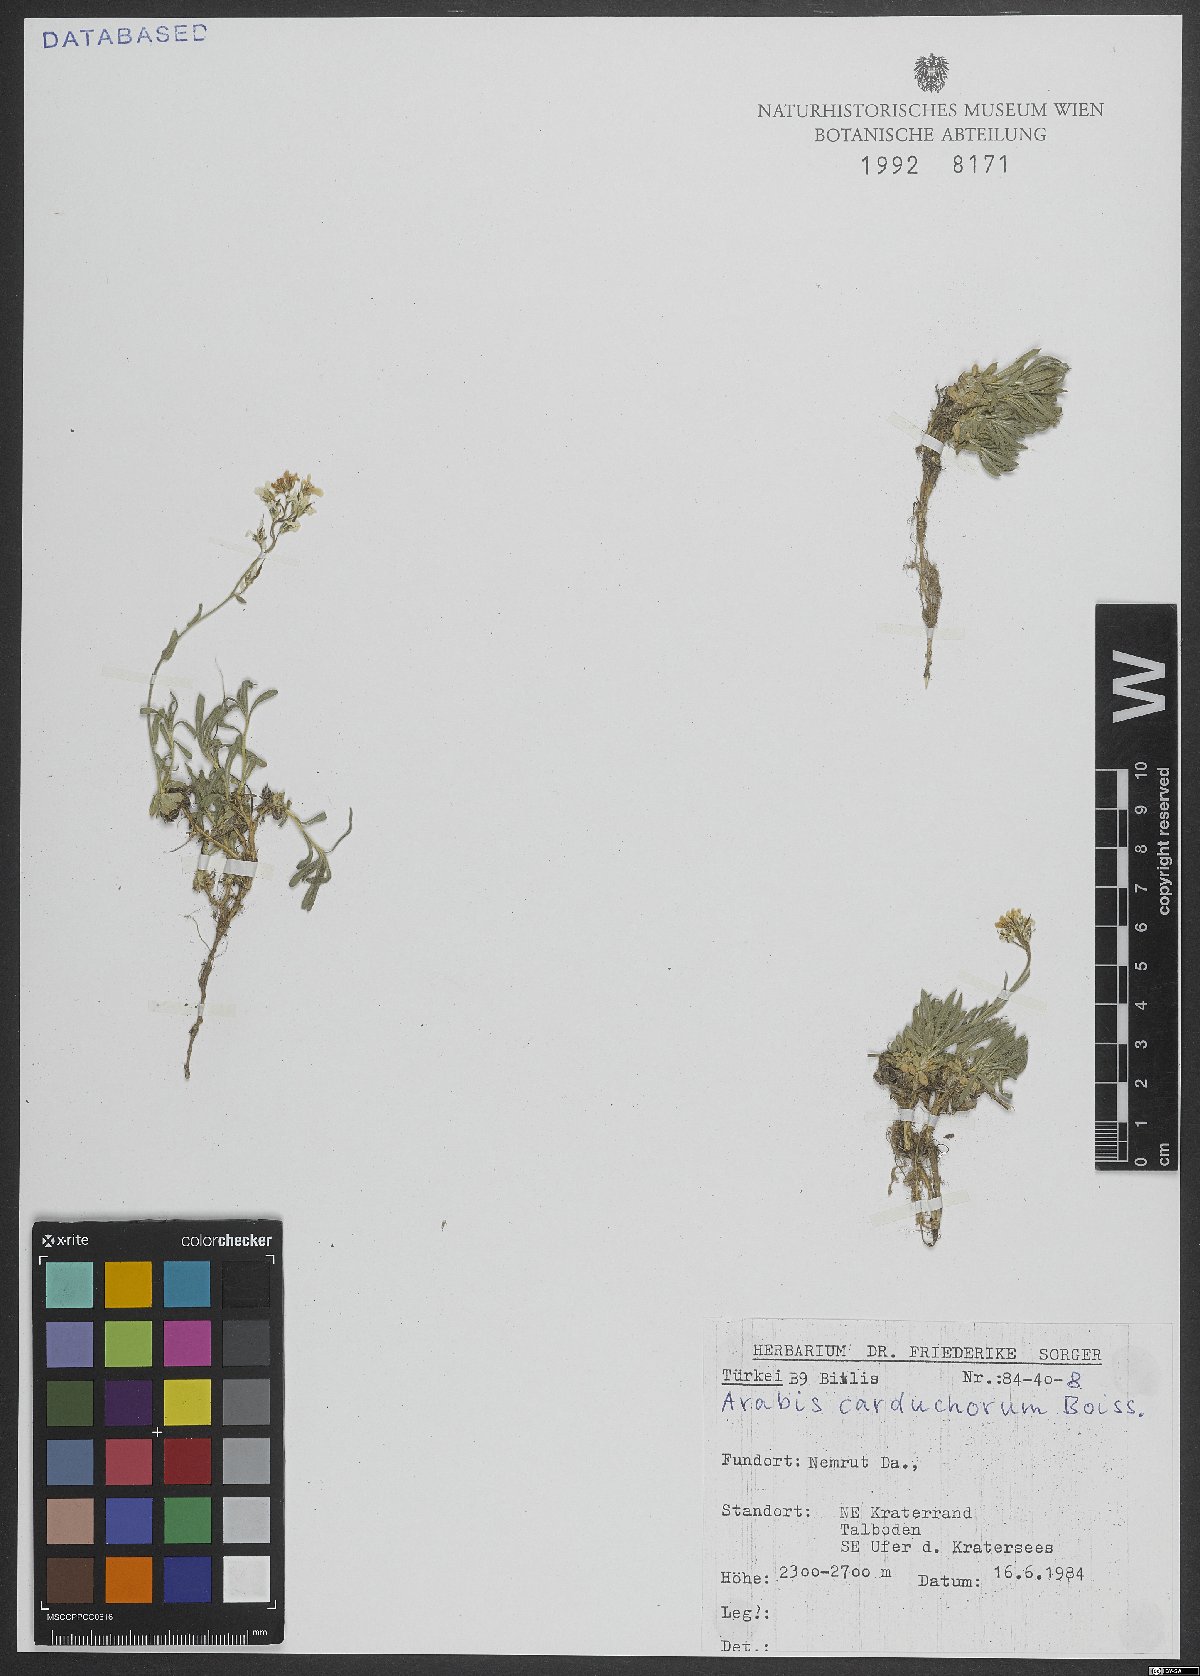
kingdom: Plantae
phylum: Tracheophyta
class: Magnoliopsida
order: Brassicales
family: Brassicaceae
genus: Arabis
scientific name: Arabis carduchorum
